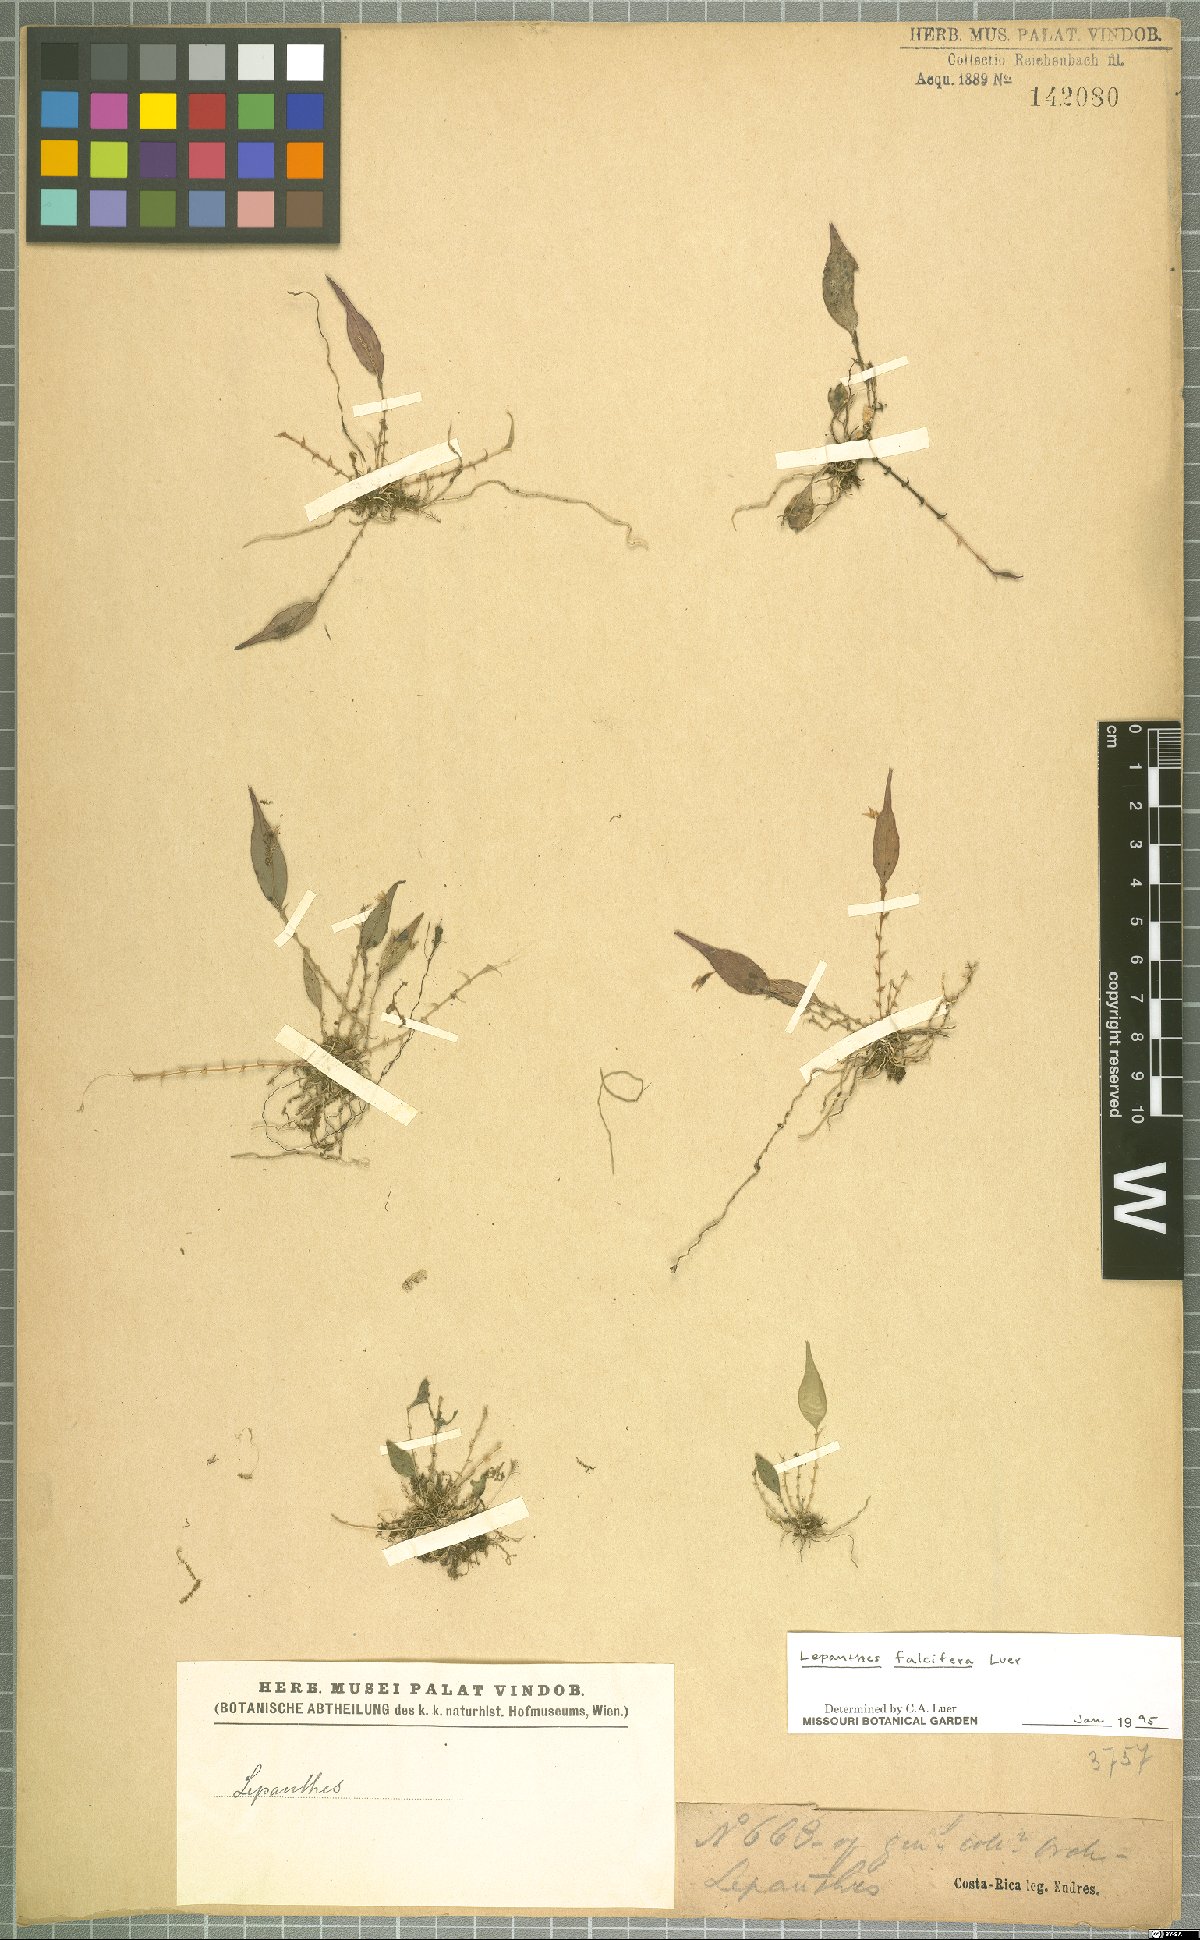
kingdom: Plantae
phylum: Tracheophyta
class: Liliopsida
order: Asparagales
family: Orchidaceae
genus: Lepanthes
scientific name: Lepanthes falcifera
